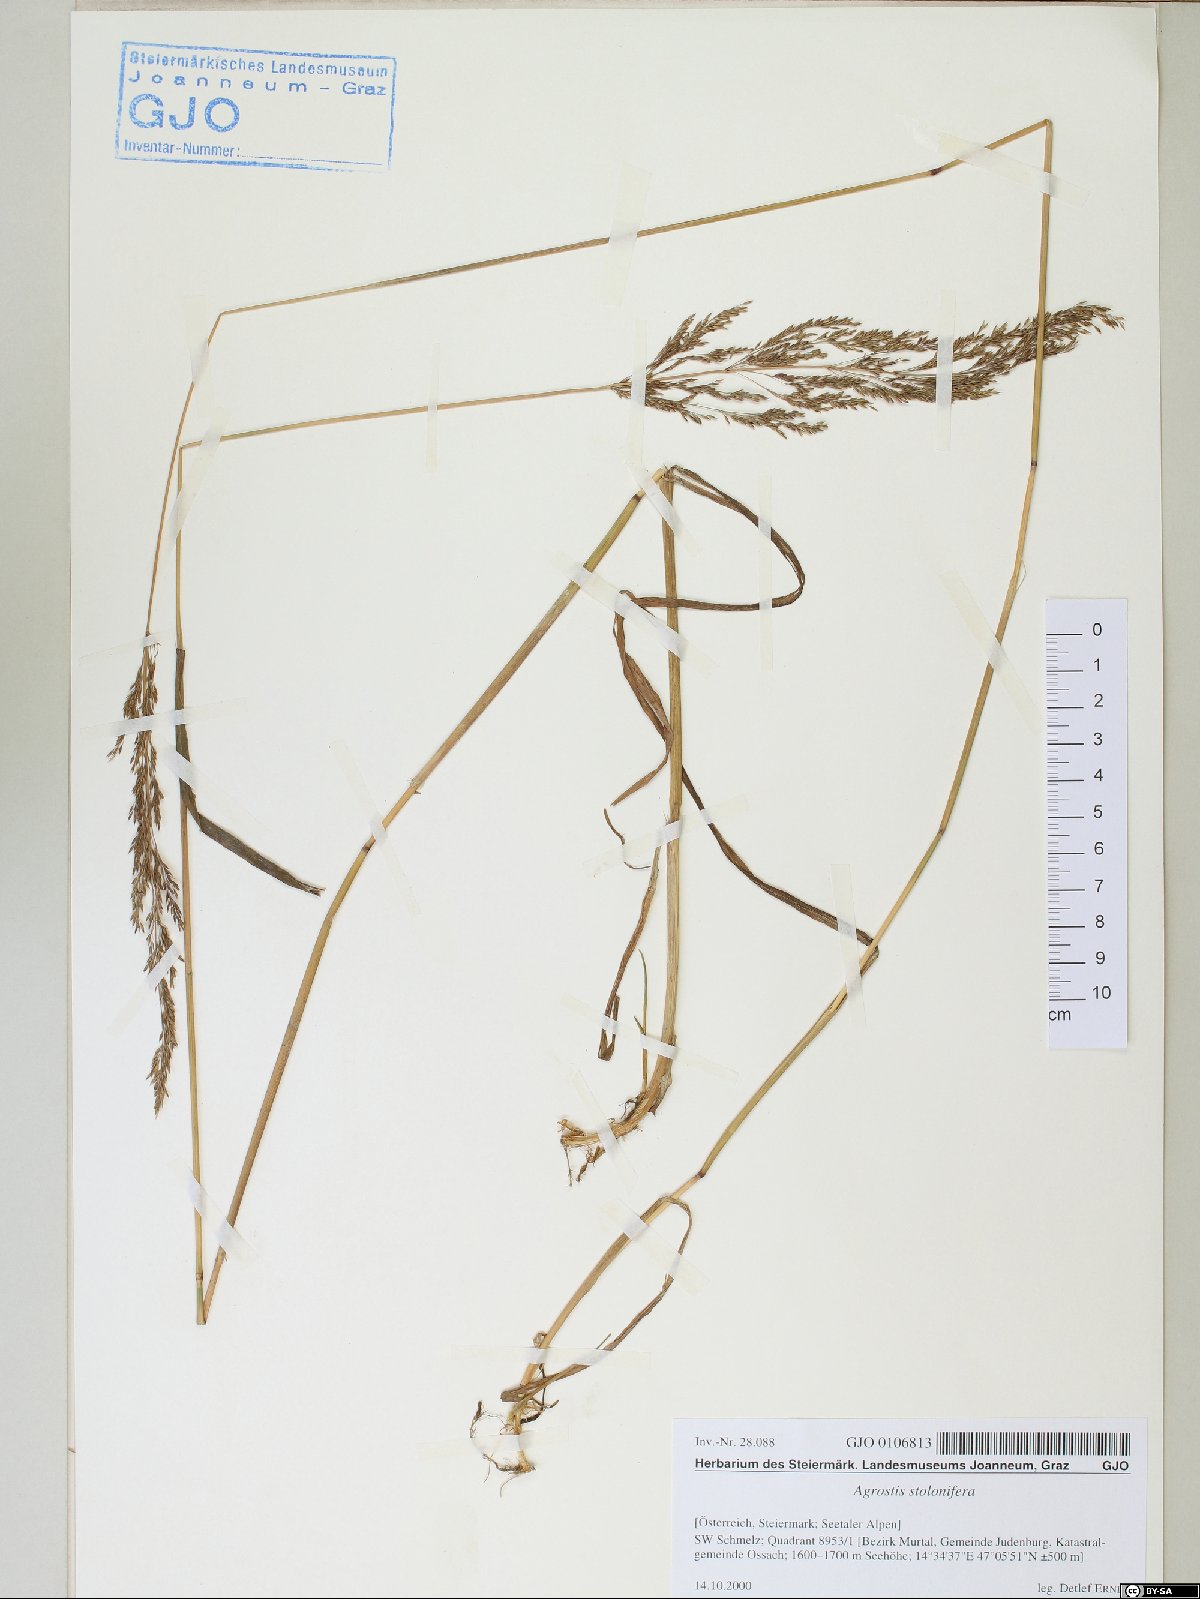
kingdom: Plantae
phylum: Tracheophyta
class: Liliopsida
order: Poales
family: Poaceae
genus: Agrostis
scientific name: Agrostis stolonifera
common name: Creeping bentgrass
